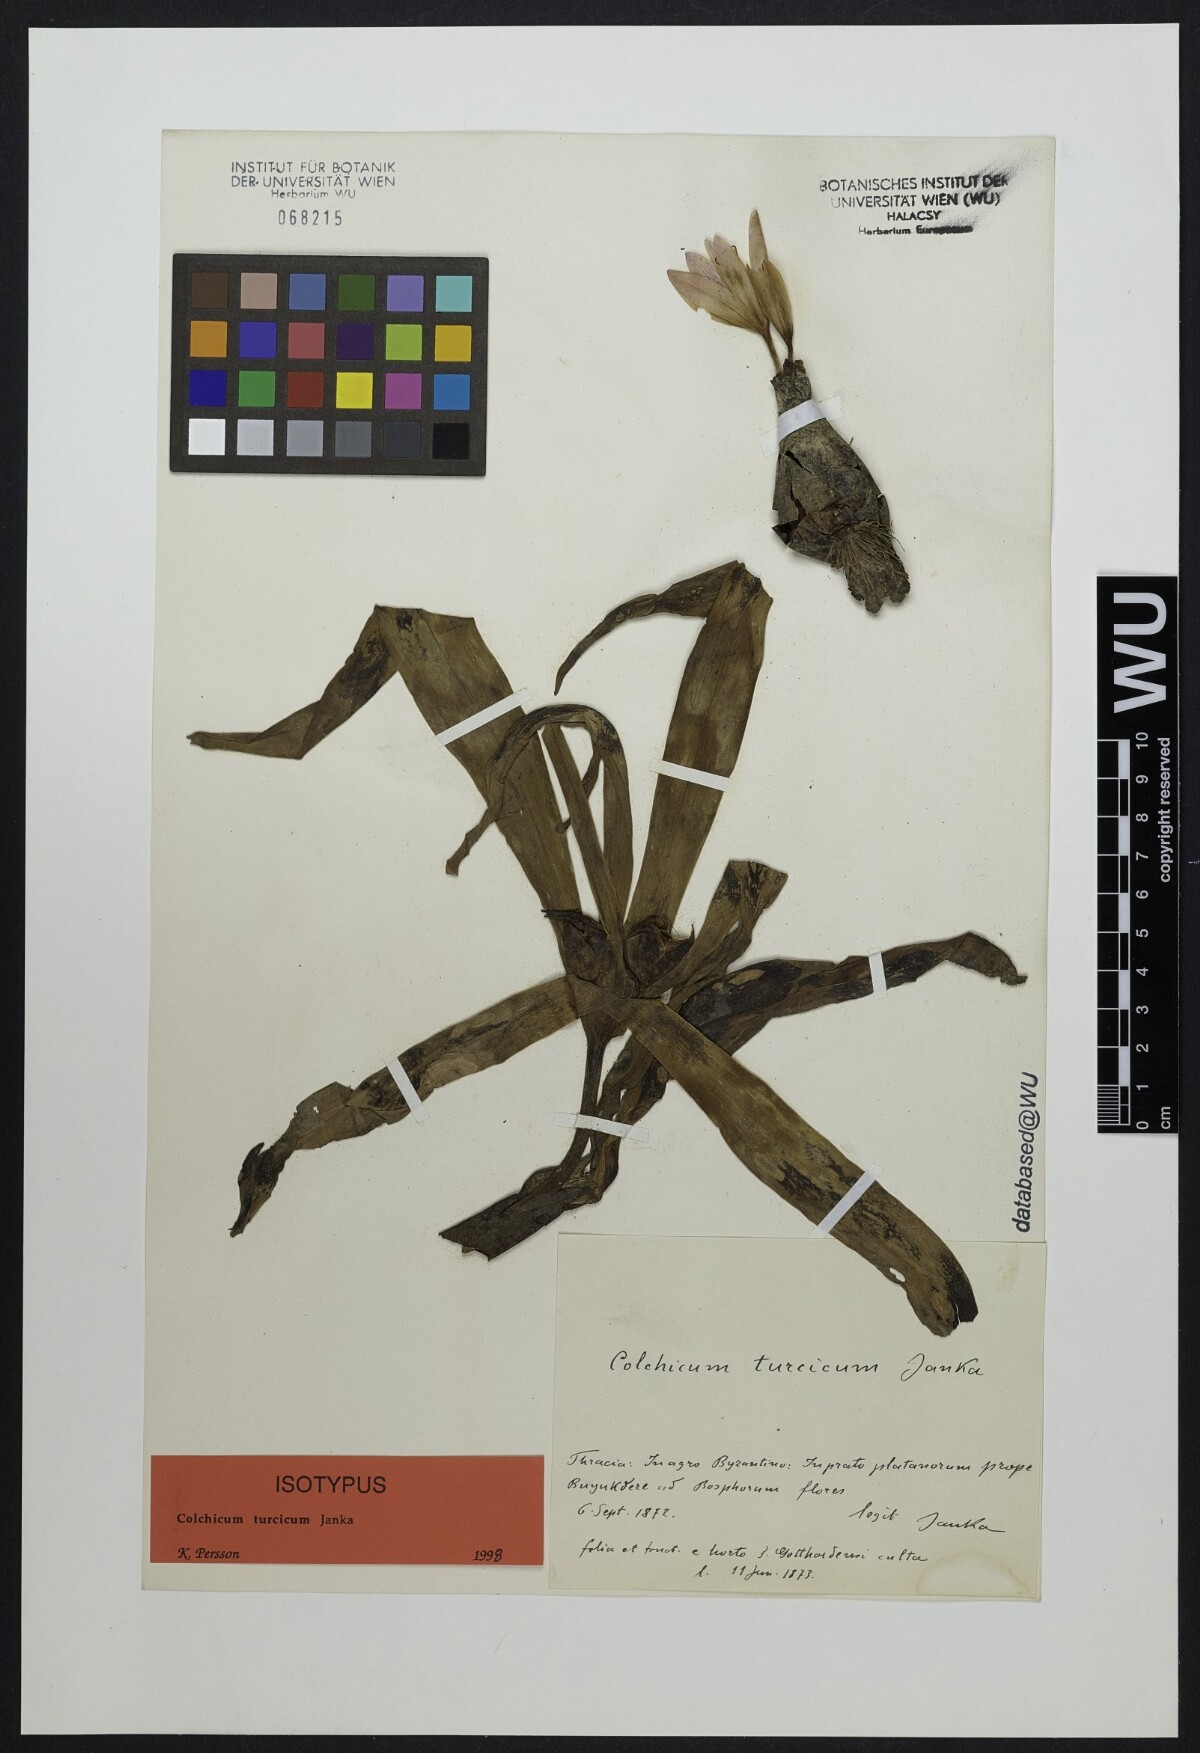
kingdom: Plantae
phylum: Tracheophyta
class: Liliopsida
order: Liliales
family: Colchicaceae
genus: Colchicum
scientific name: Colchicum turcicum
